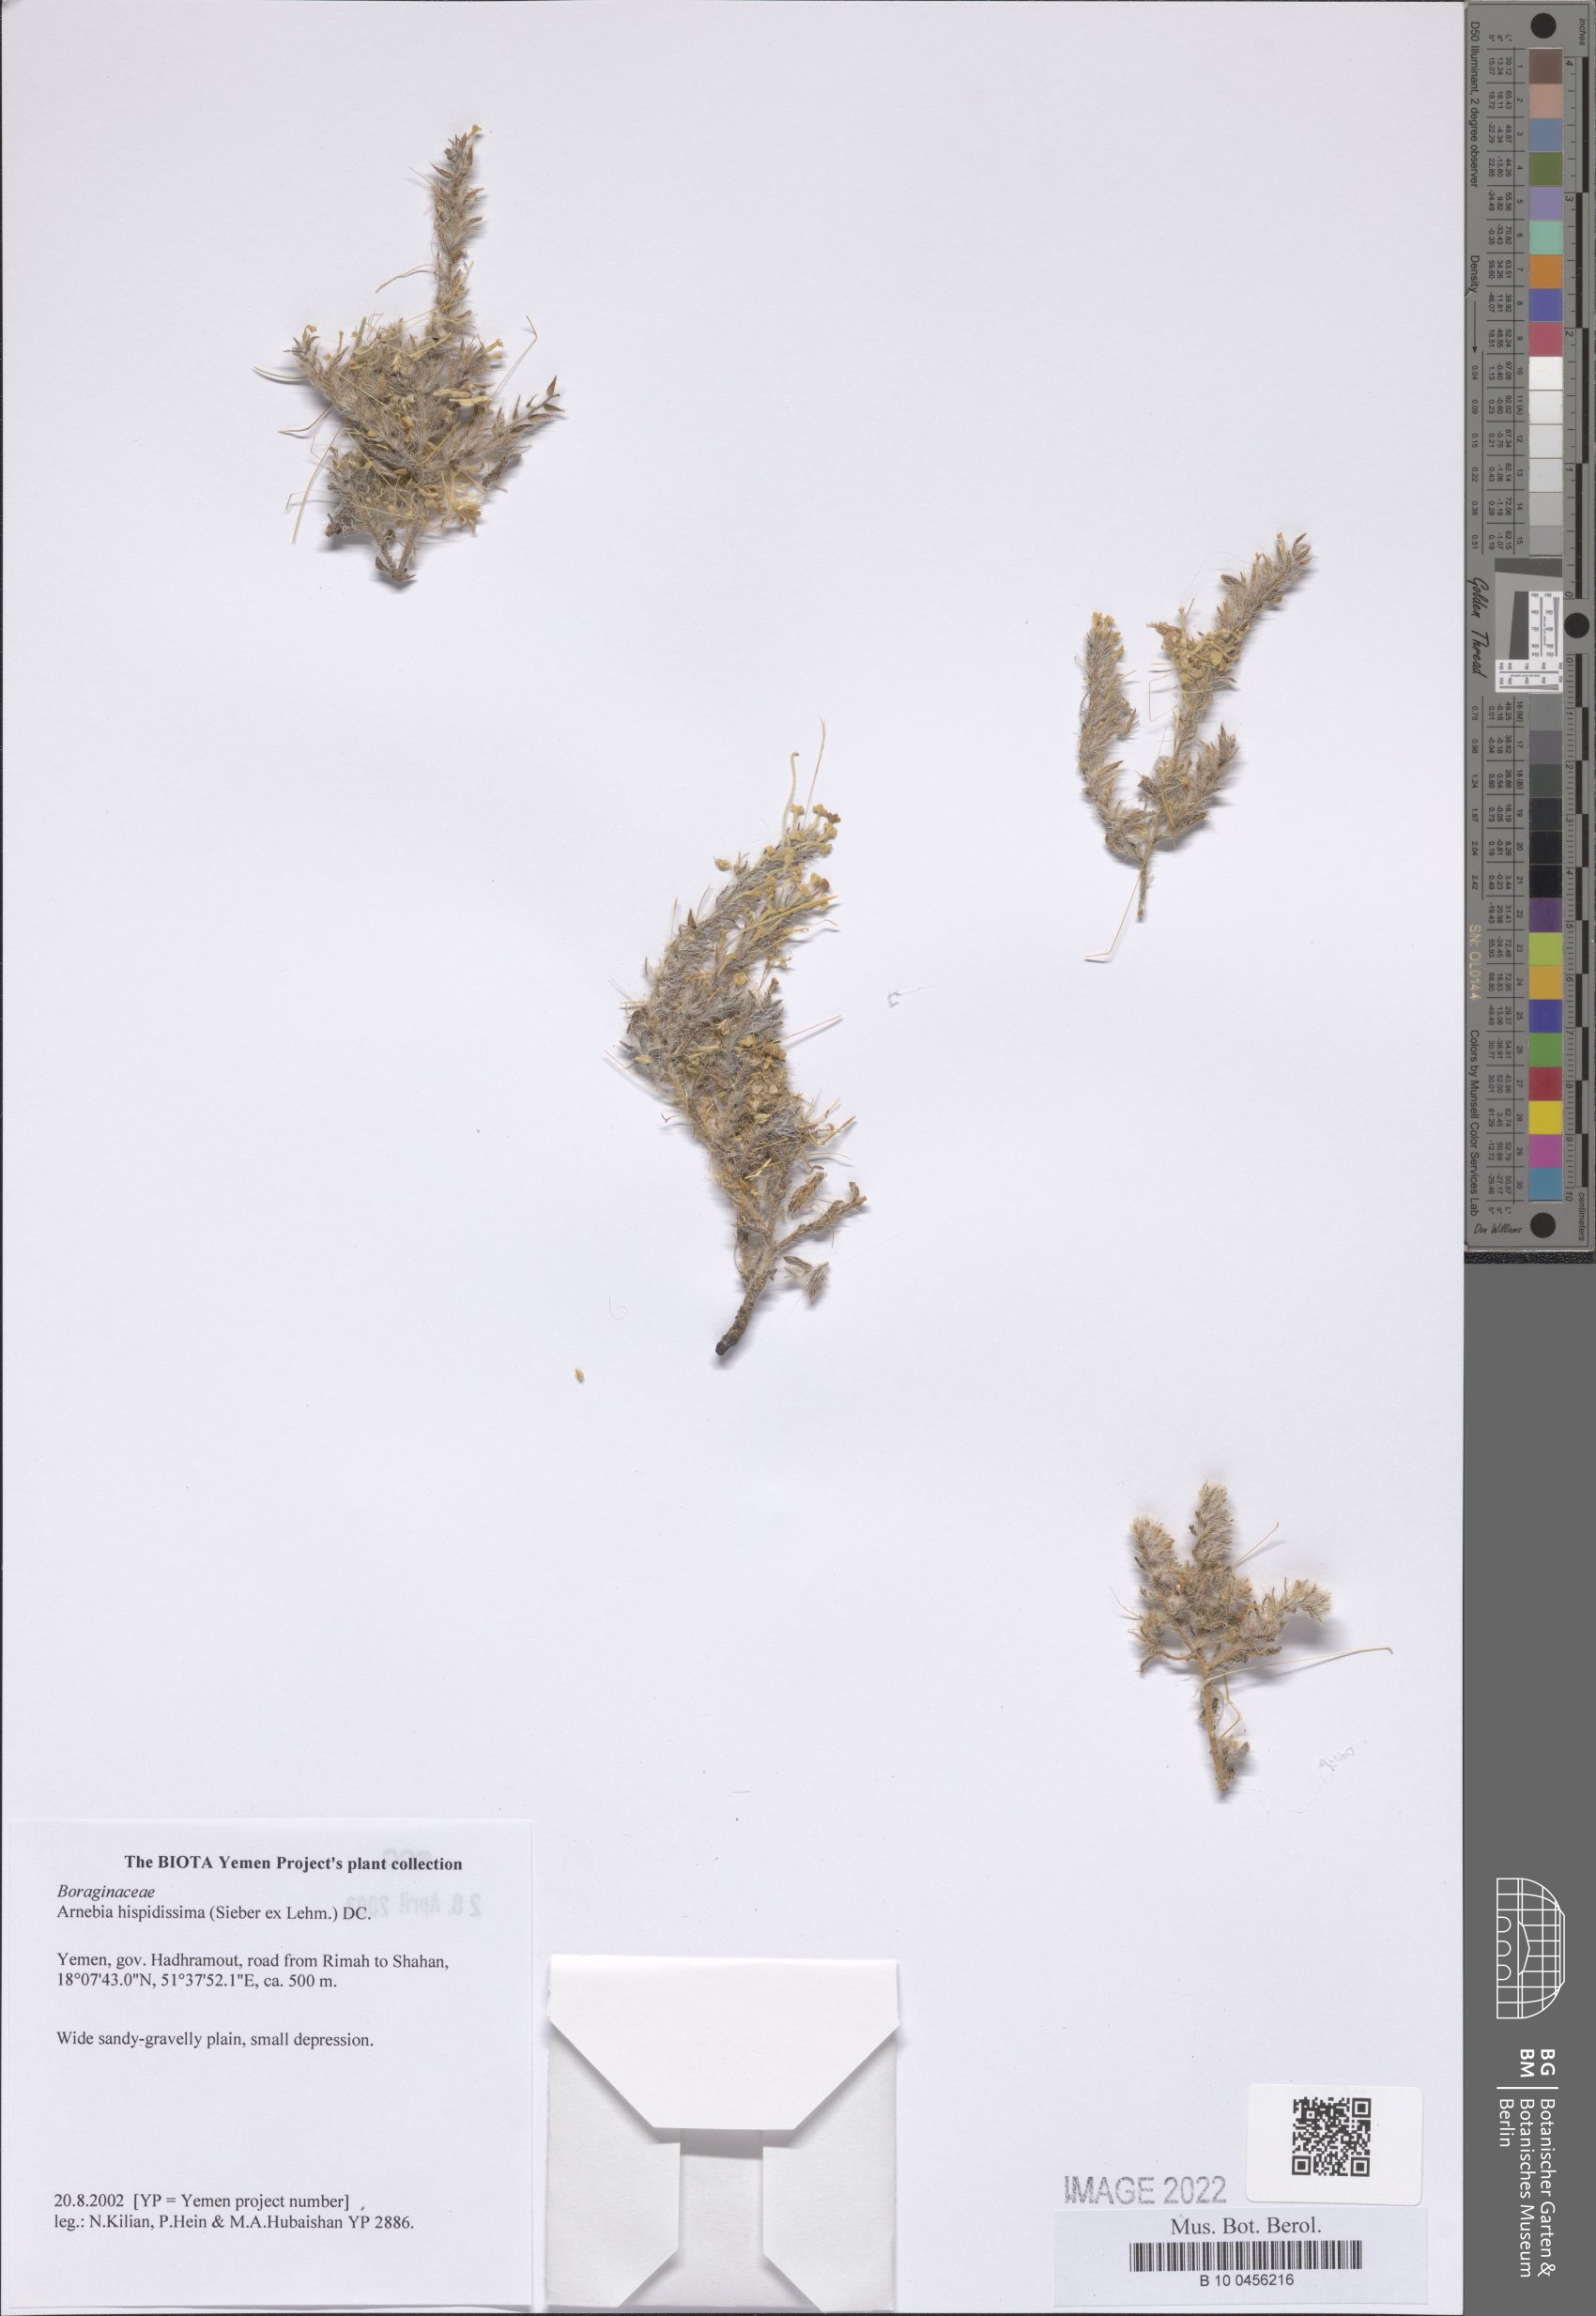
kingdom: Plantae
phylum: Tracheophyta
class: Magnoliopsida
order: Boraginales
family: Boraginaceae
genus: Arnebia
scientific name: Arnebia hispidissima
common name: Arabian-primrose
